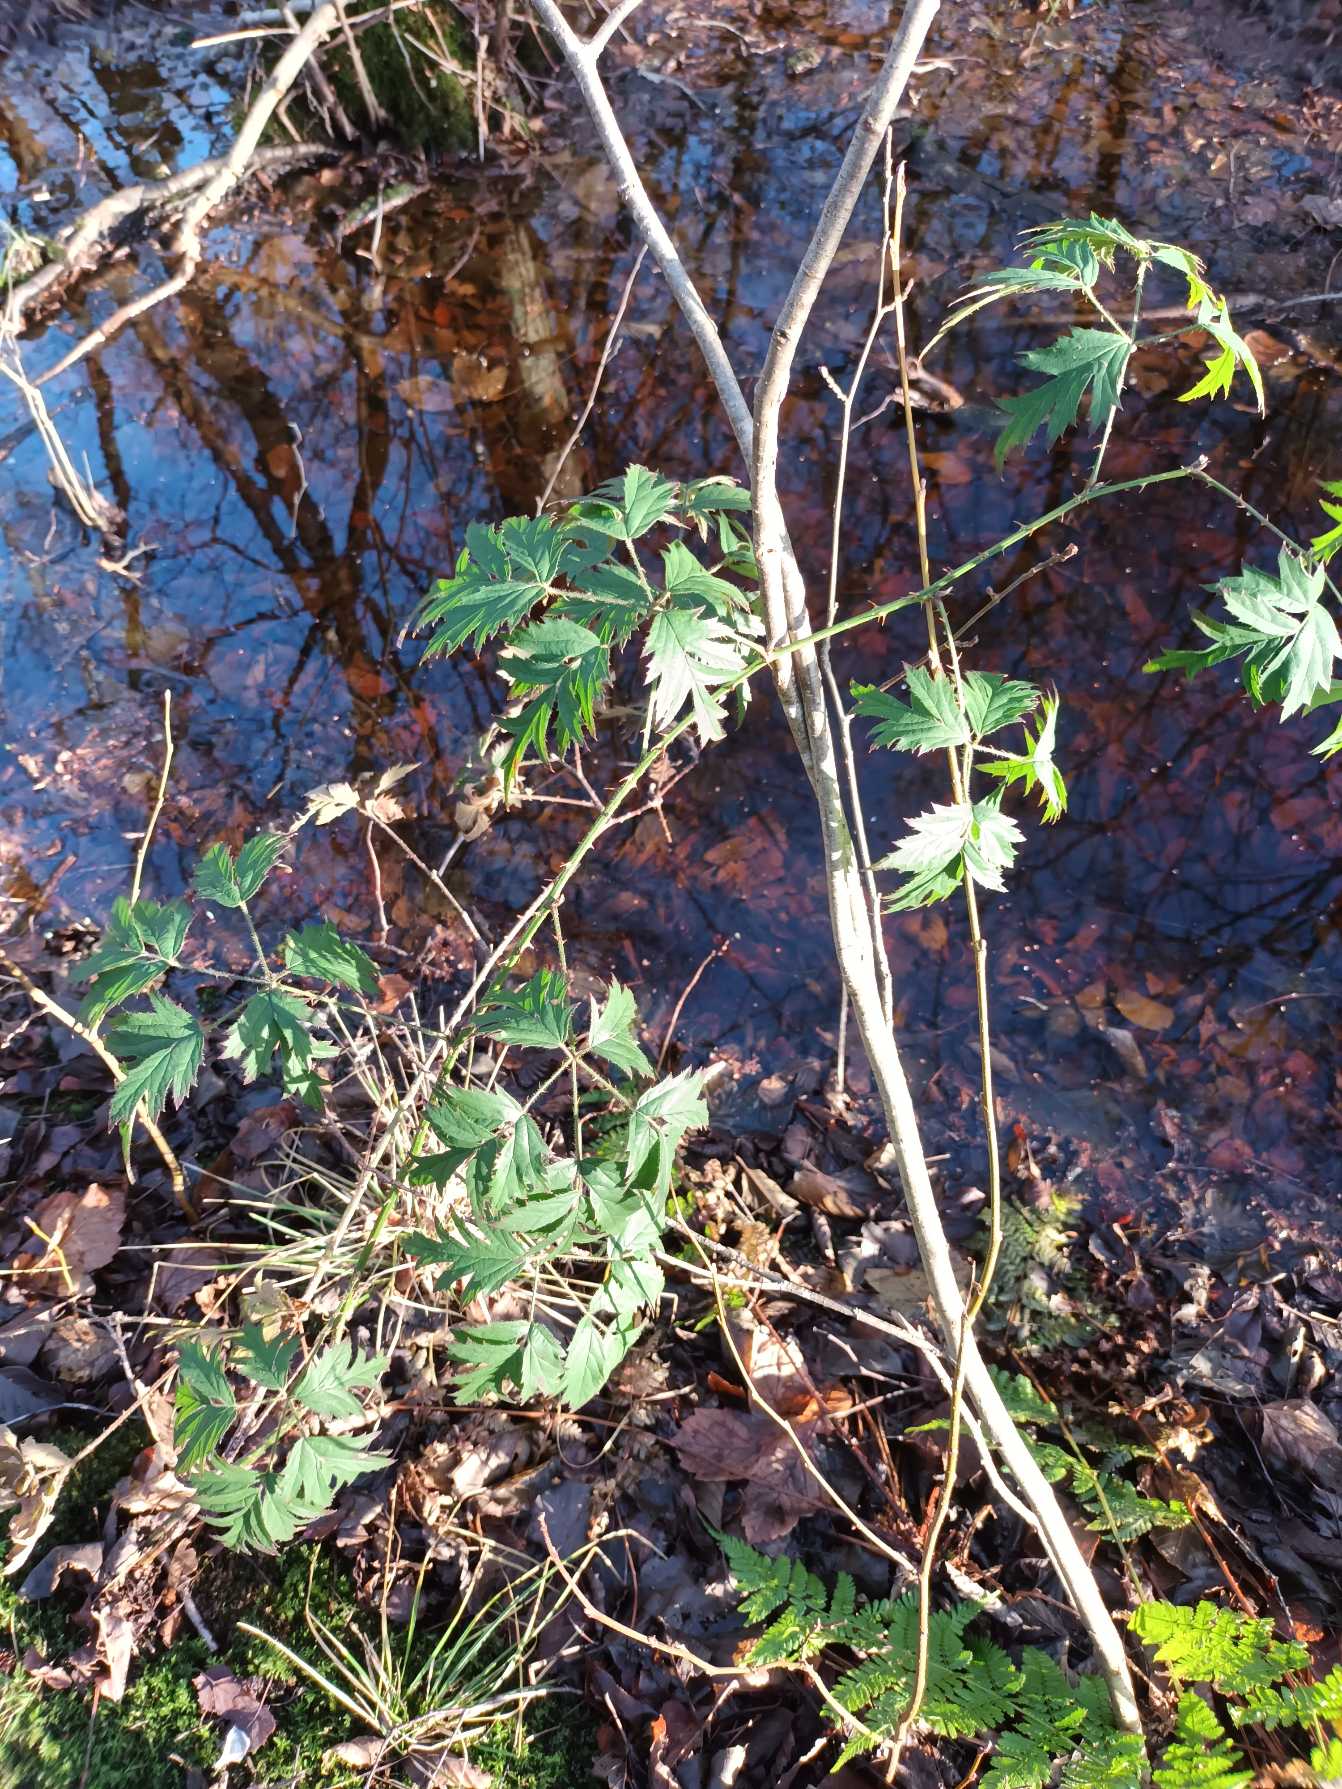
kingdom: Plantae
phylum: Tracheophyta
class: Magnoliopsida
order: Rosales
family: Rosaceae
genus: Rubus
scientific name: Rubus laciniatus
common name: Fliget brombær
